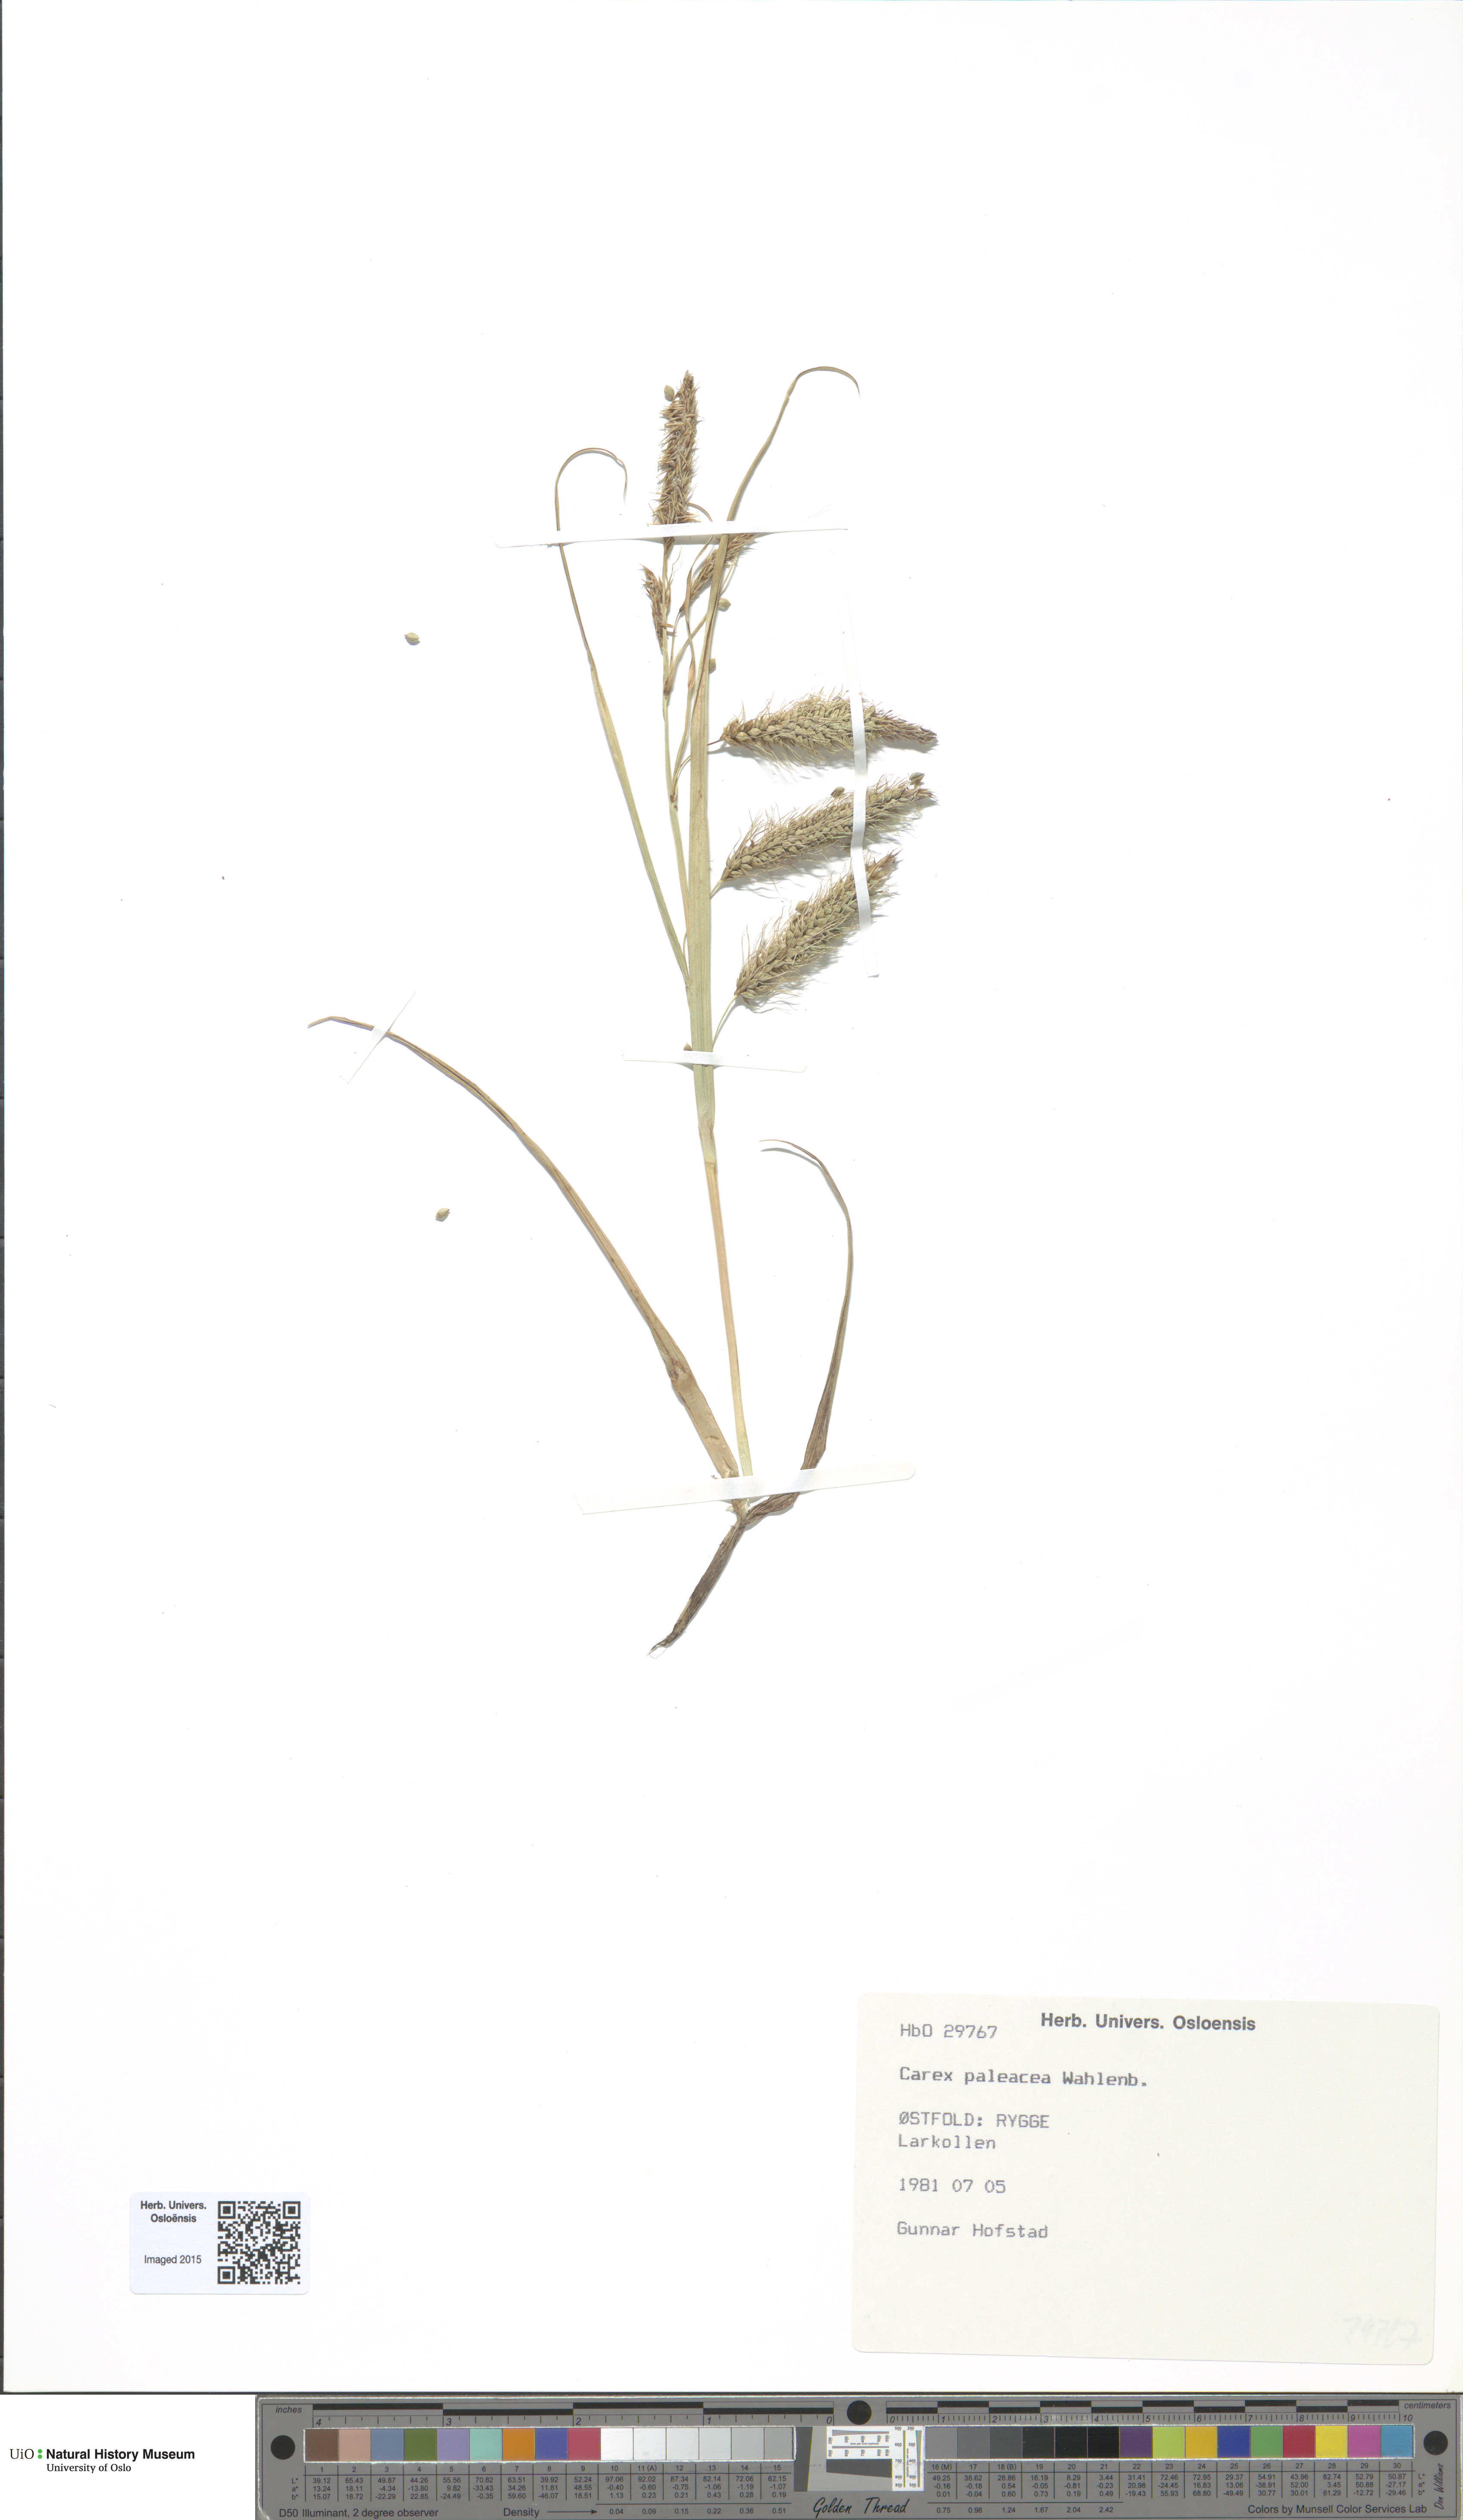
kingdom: Plantae
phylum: Tracheophyta
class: Liliopsida
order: Poales
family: Cyperaceae
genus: Carex
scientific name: Carex paleacea
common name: Chaffy sedge
